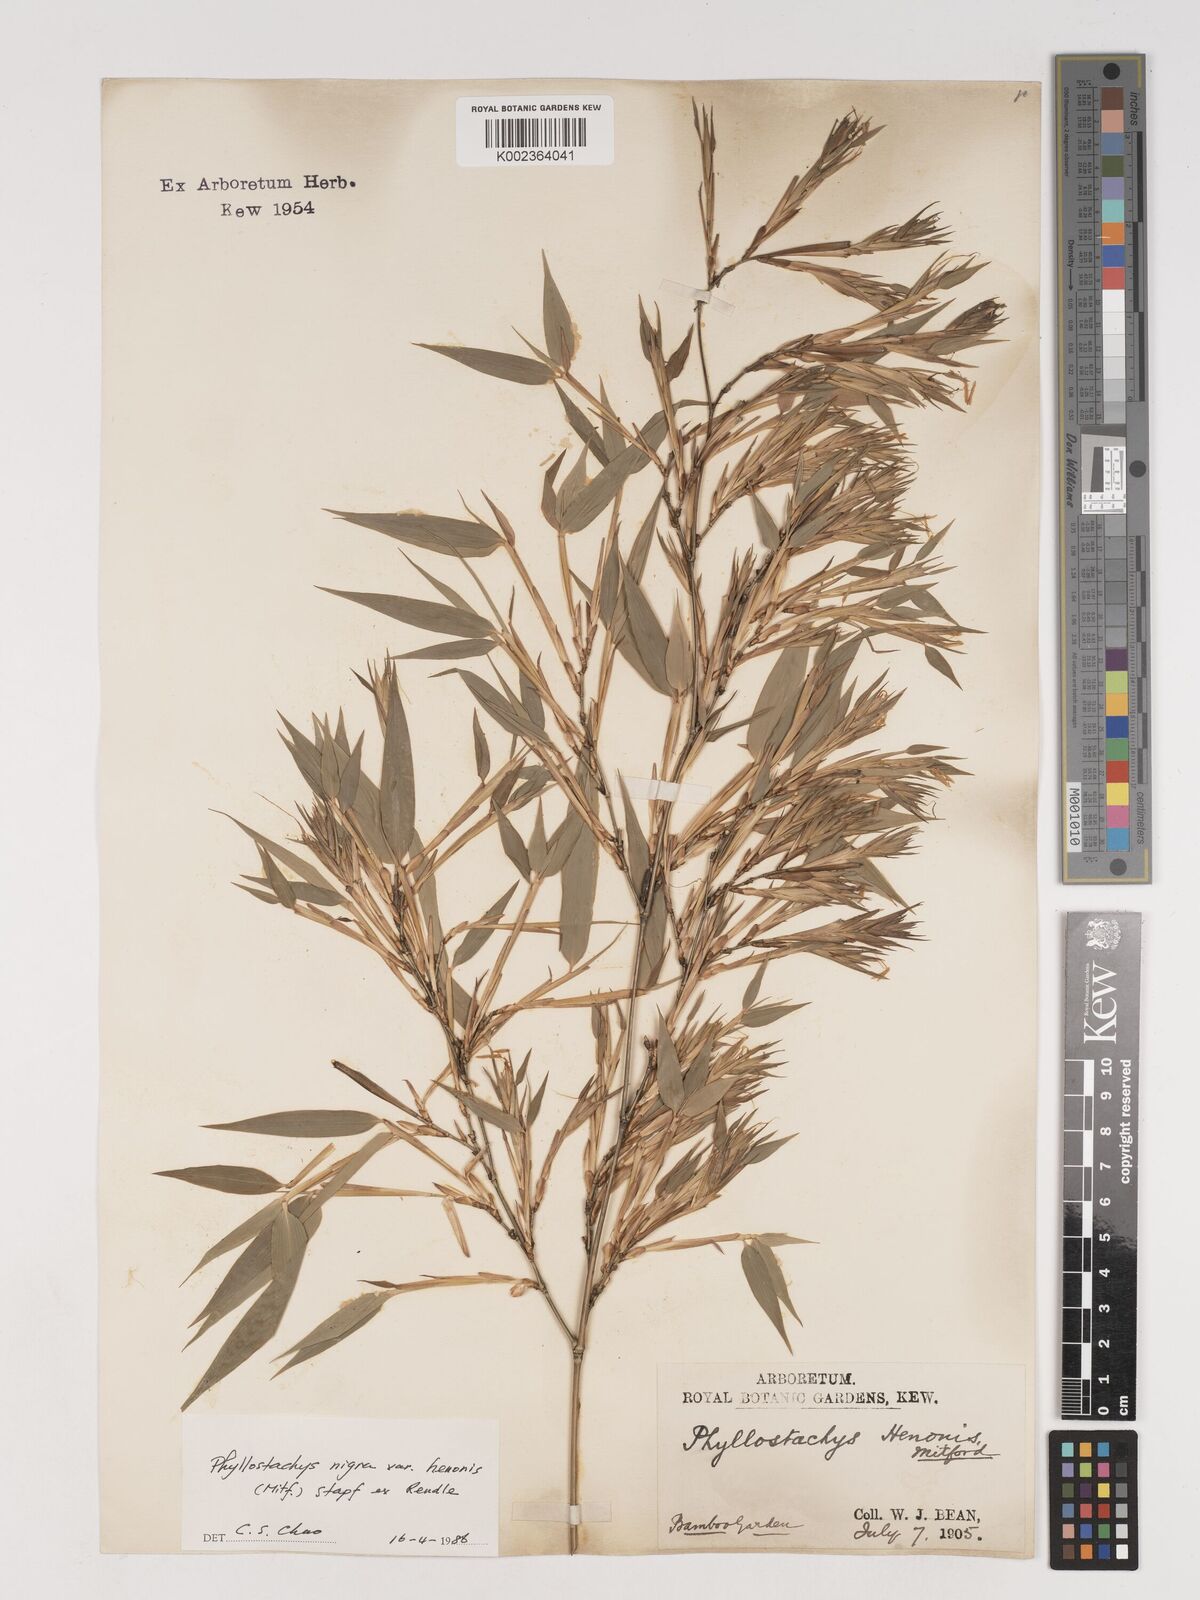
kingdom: Plantae
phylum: Tracheophyta
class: Liliopsida
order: Poales
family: Poaceae
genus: Phyllostachys
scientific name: Phyllostachys nigra
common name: Black bamboo
